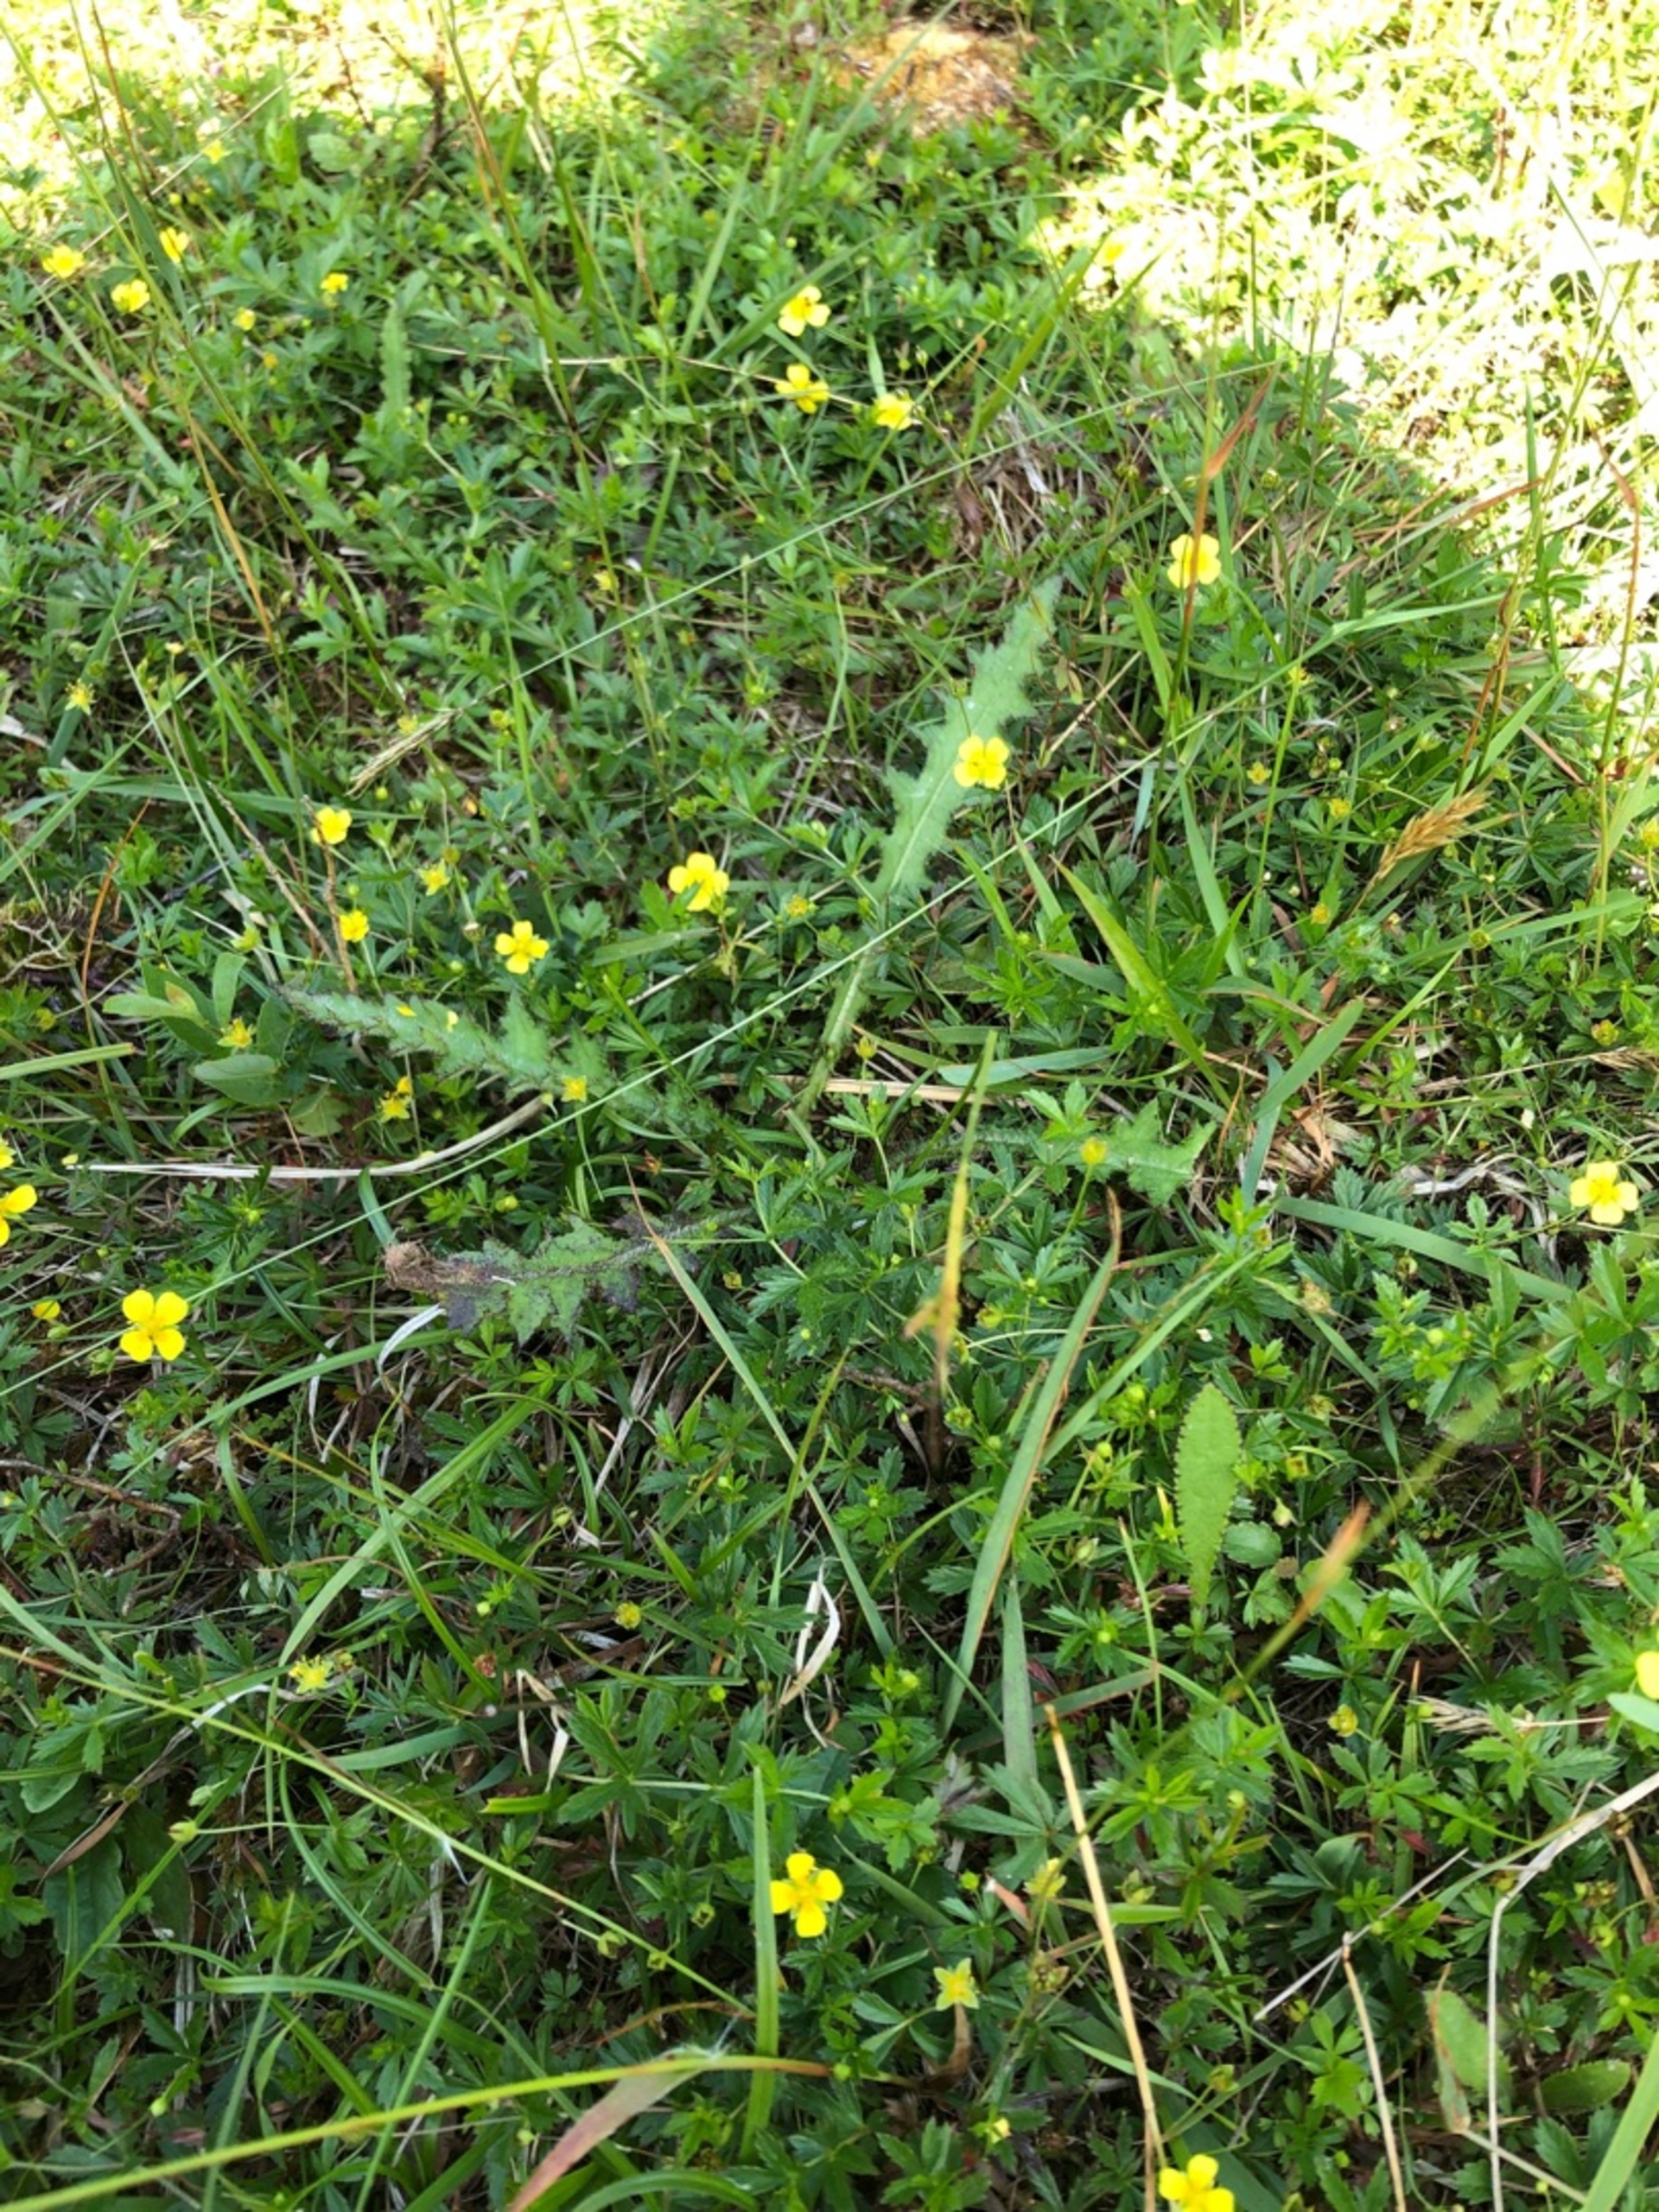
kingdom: Plantae
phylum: Tracheophyta
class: Magnoliopsida
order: Rosales
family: Rosaceae
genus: Potentilla
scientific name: Potentilla erecta
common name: Tormentil
